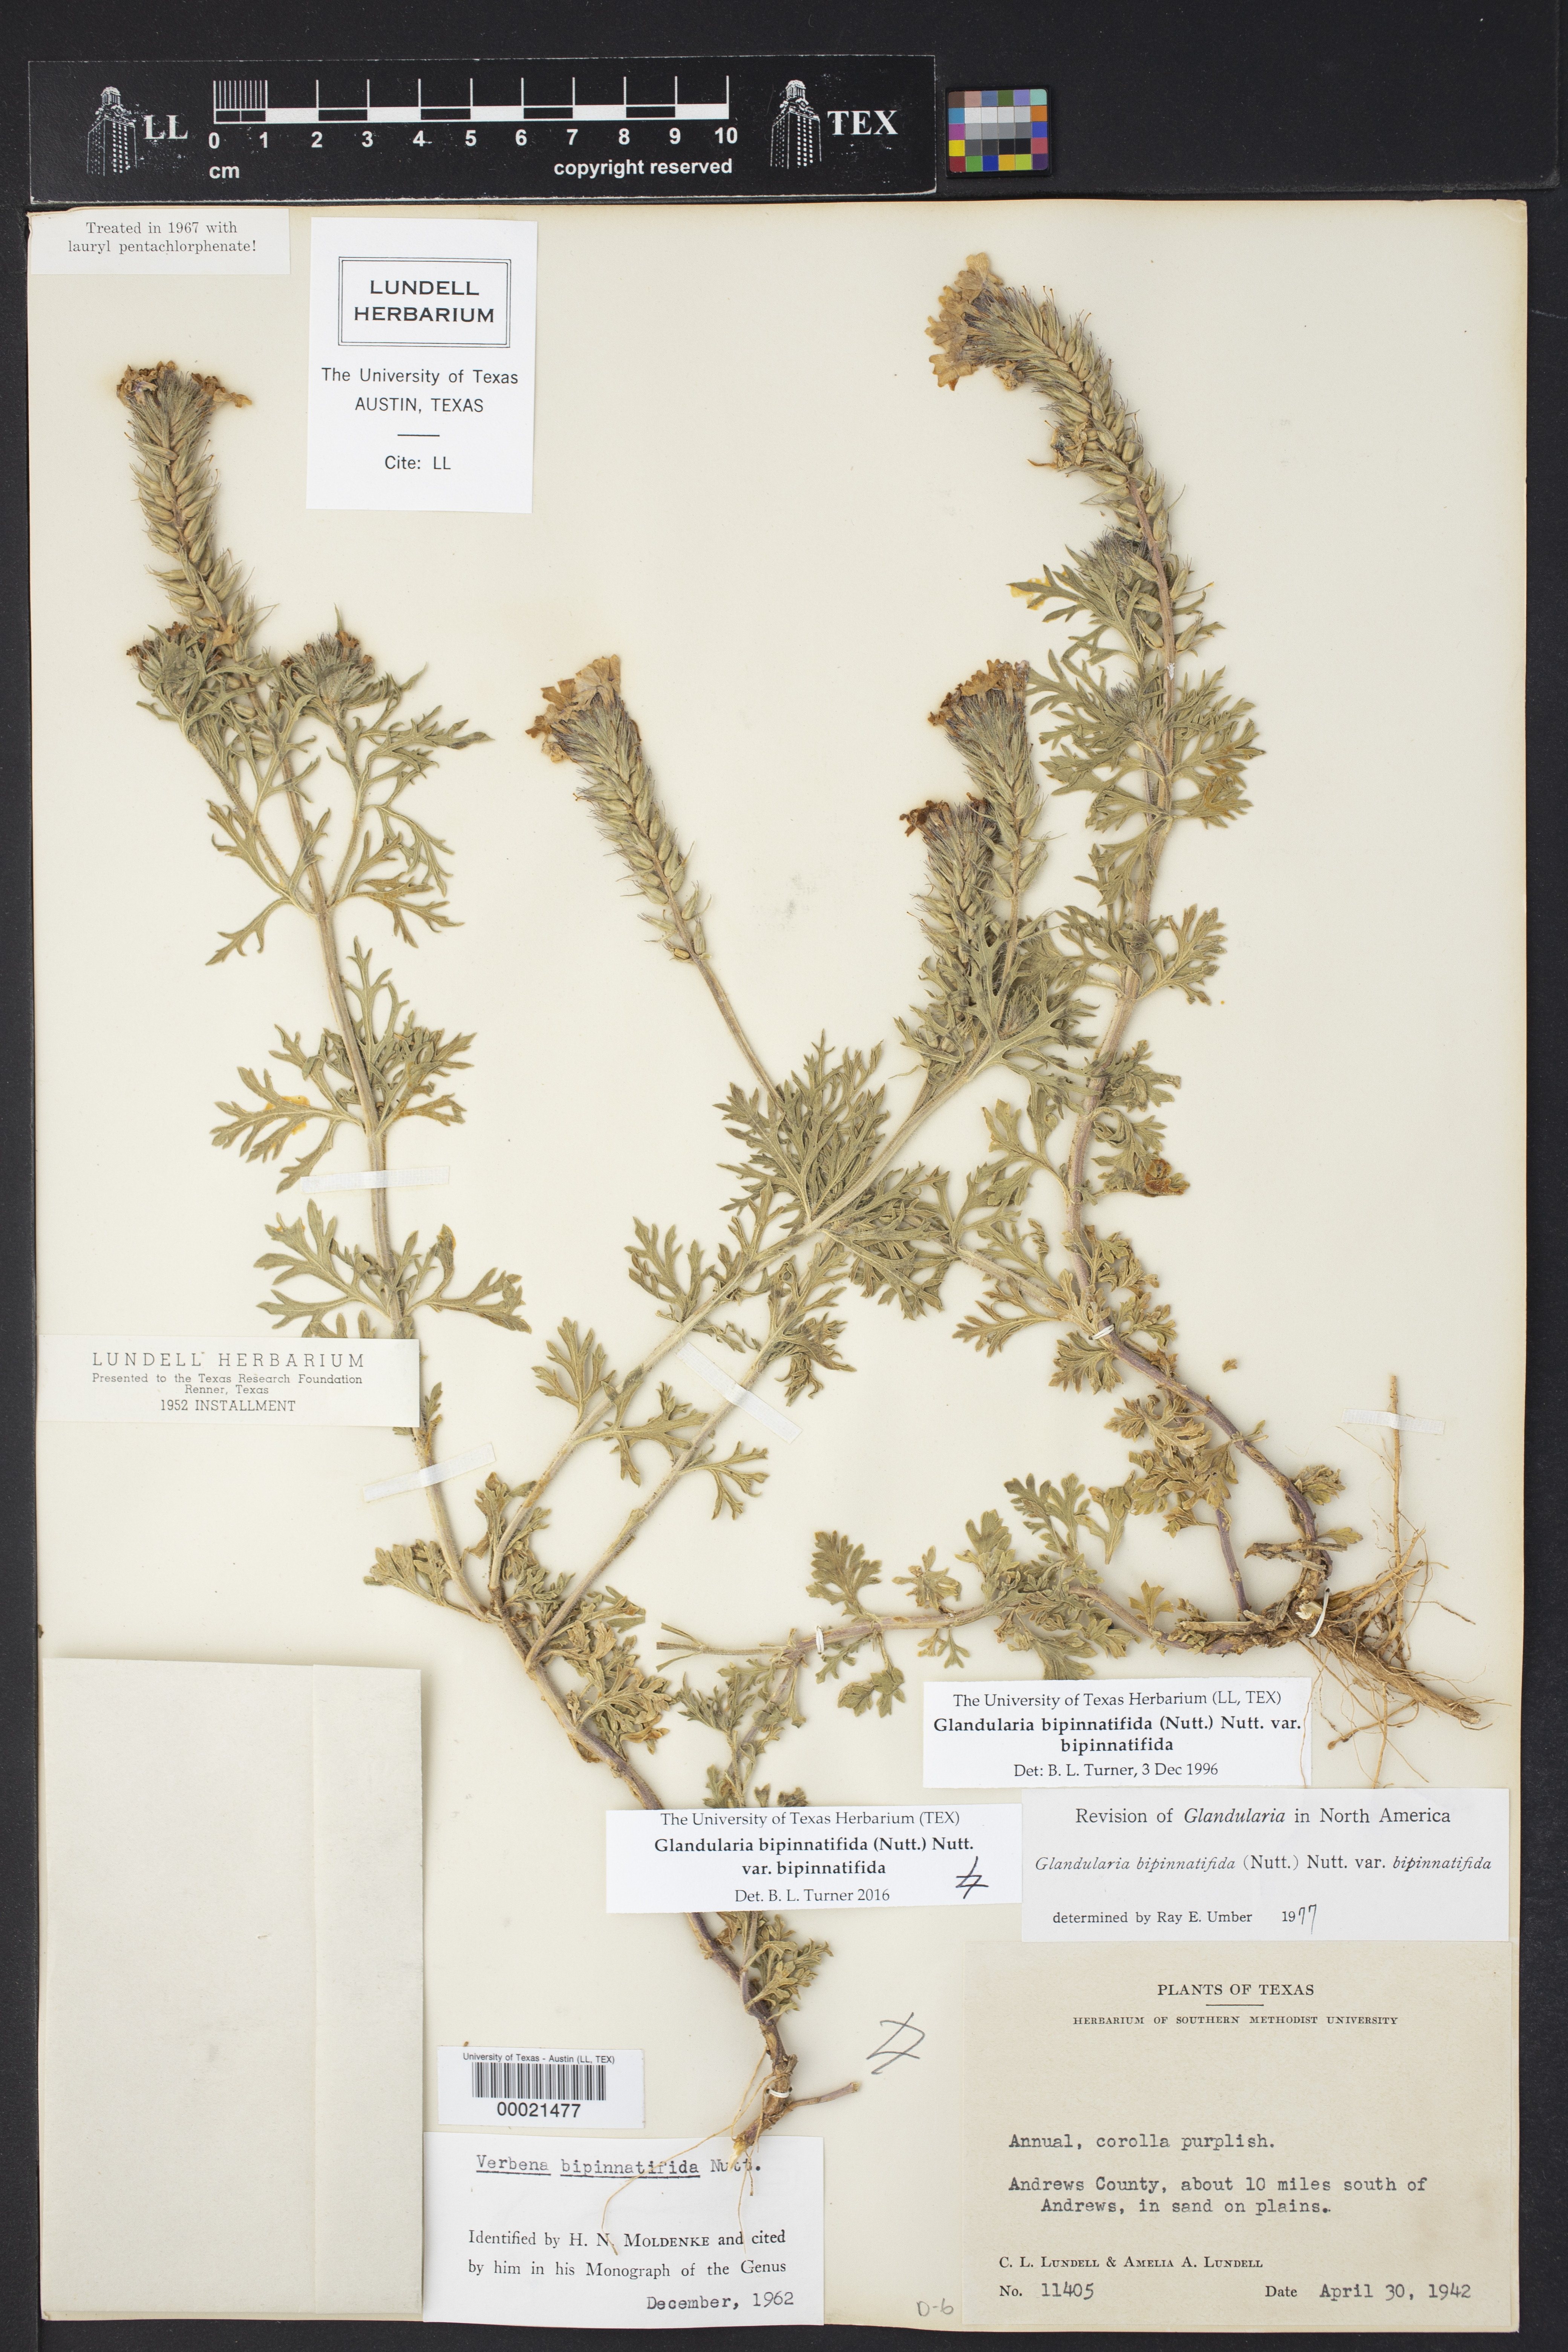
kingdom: Plantae
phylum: Tracheophyta
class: Magnoliopsida
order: Lamiales
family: Verbenaceae
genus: Verbena
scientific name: Verbena bipinnatifida
